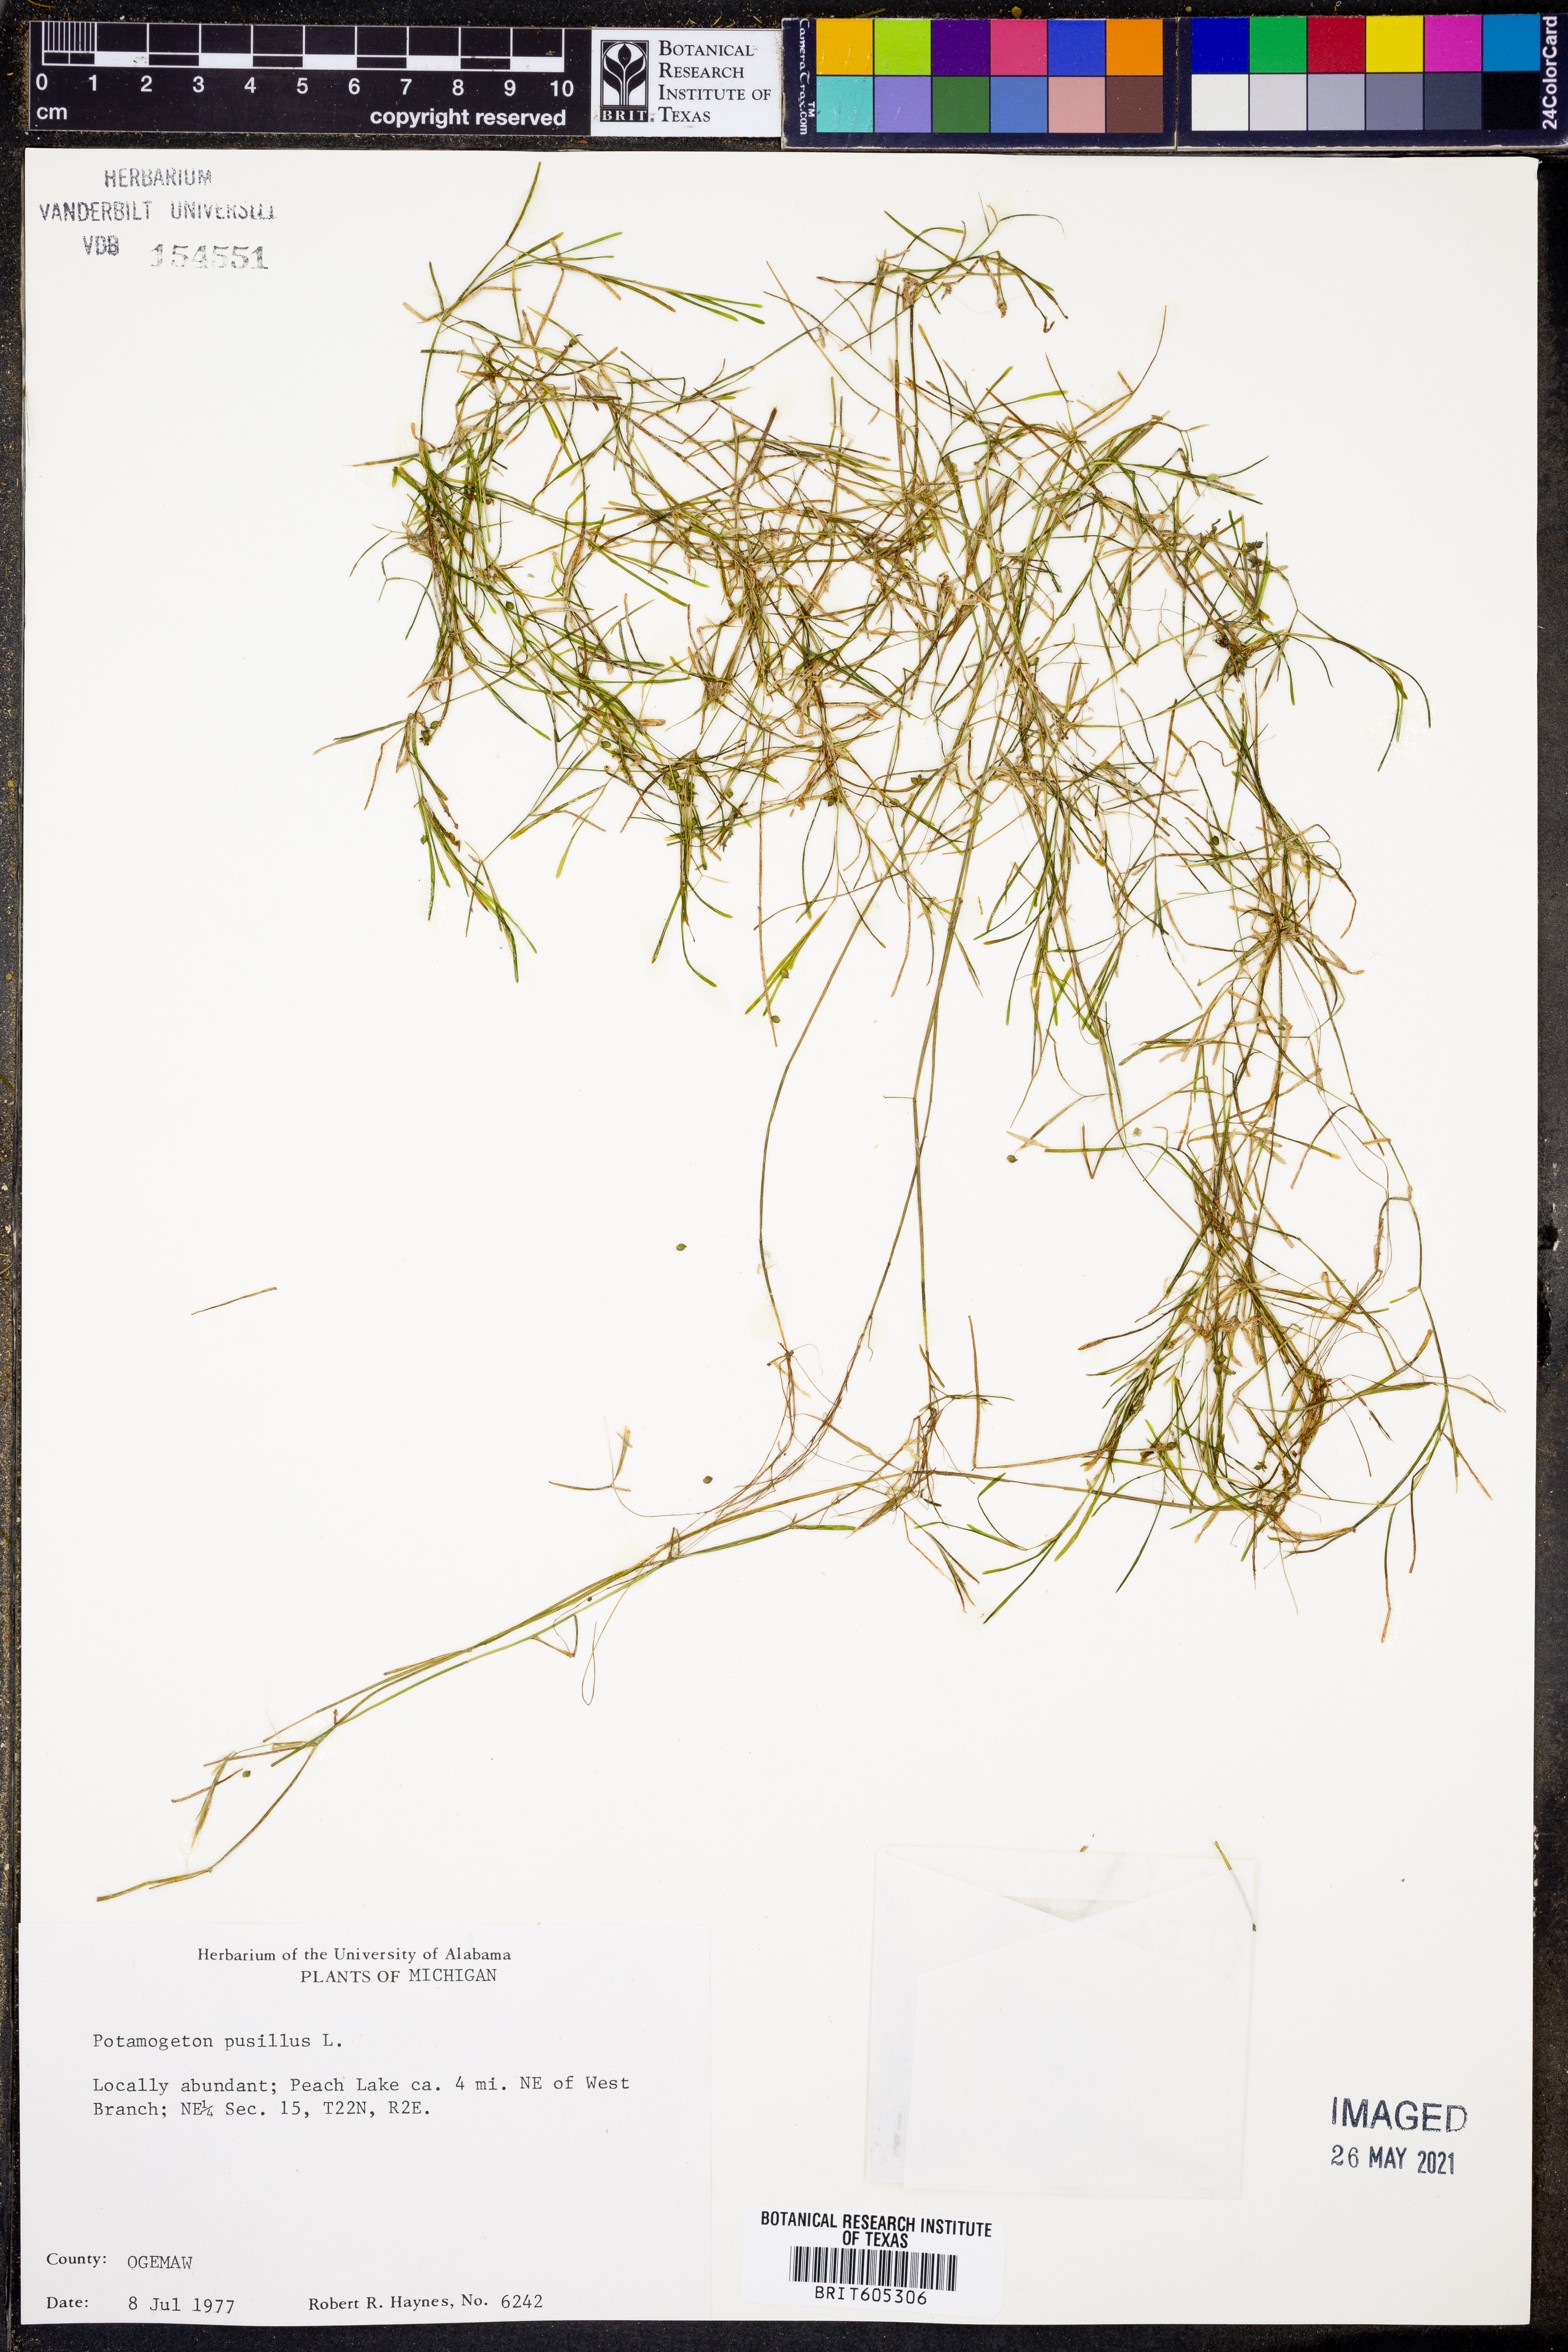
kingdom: Plantae
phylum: Tracheophyta
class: Liliopsida
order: Alismatales
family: Potamogetonaceae
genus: Potamogeton
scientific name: Potamogeton pusillus
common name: Lesser pondweed
